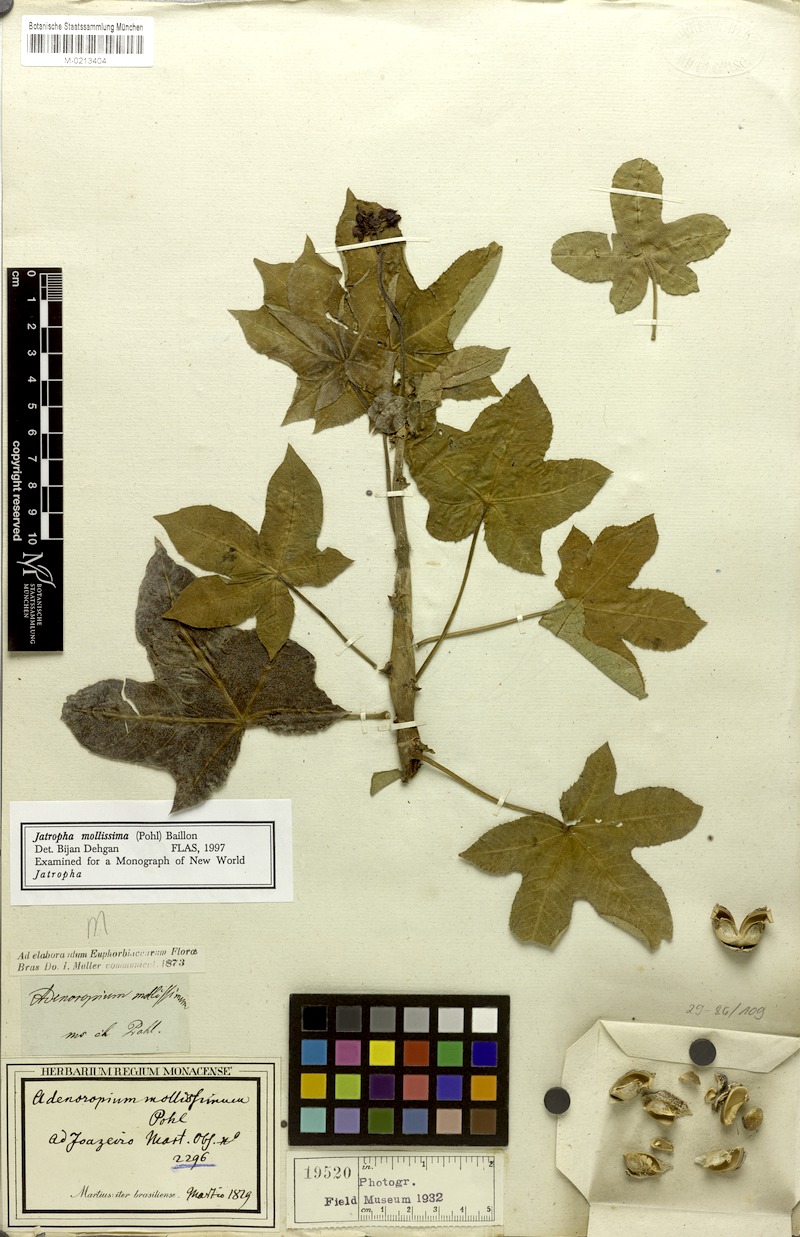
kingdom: Plantae
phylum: Tracheophyta
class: Magnoliopsida
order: Malpighiales
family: Euphorbiaceae
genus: Jatropha
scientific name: Jatropha mollissima
